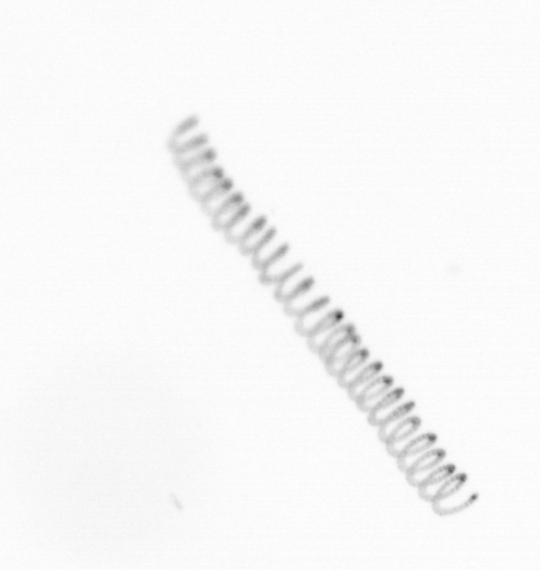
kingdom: Chromista
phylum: Ochrophyta
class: Bacillariophyceae
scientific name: Bacillariophyceae
